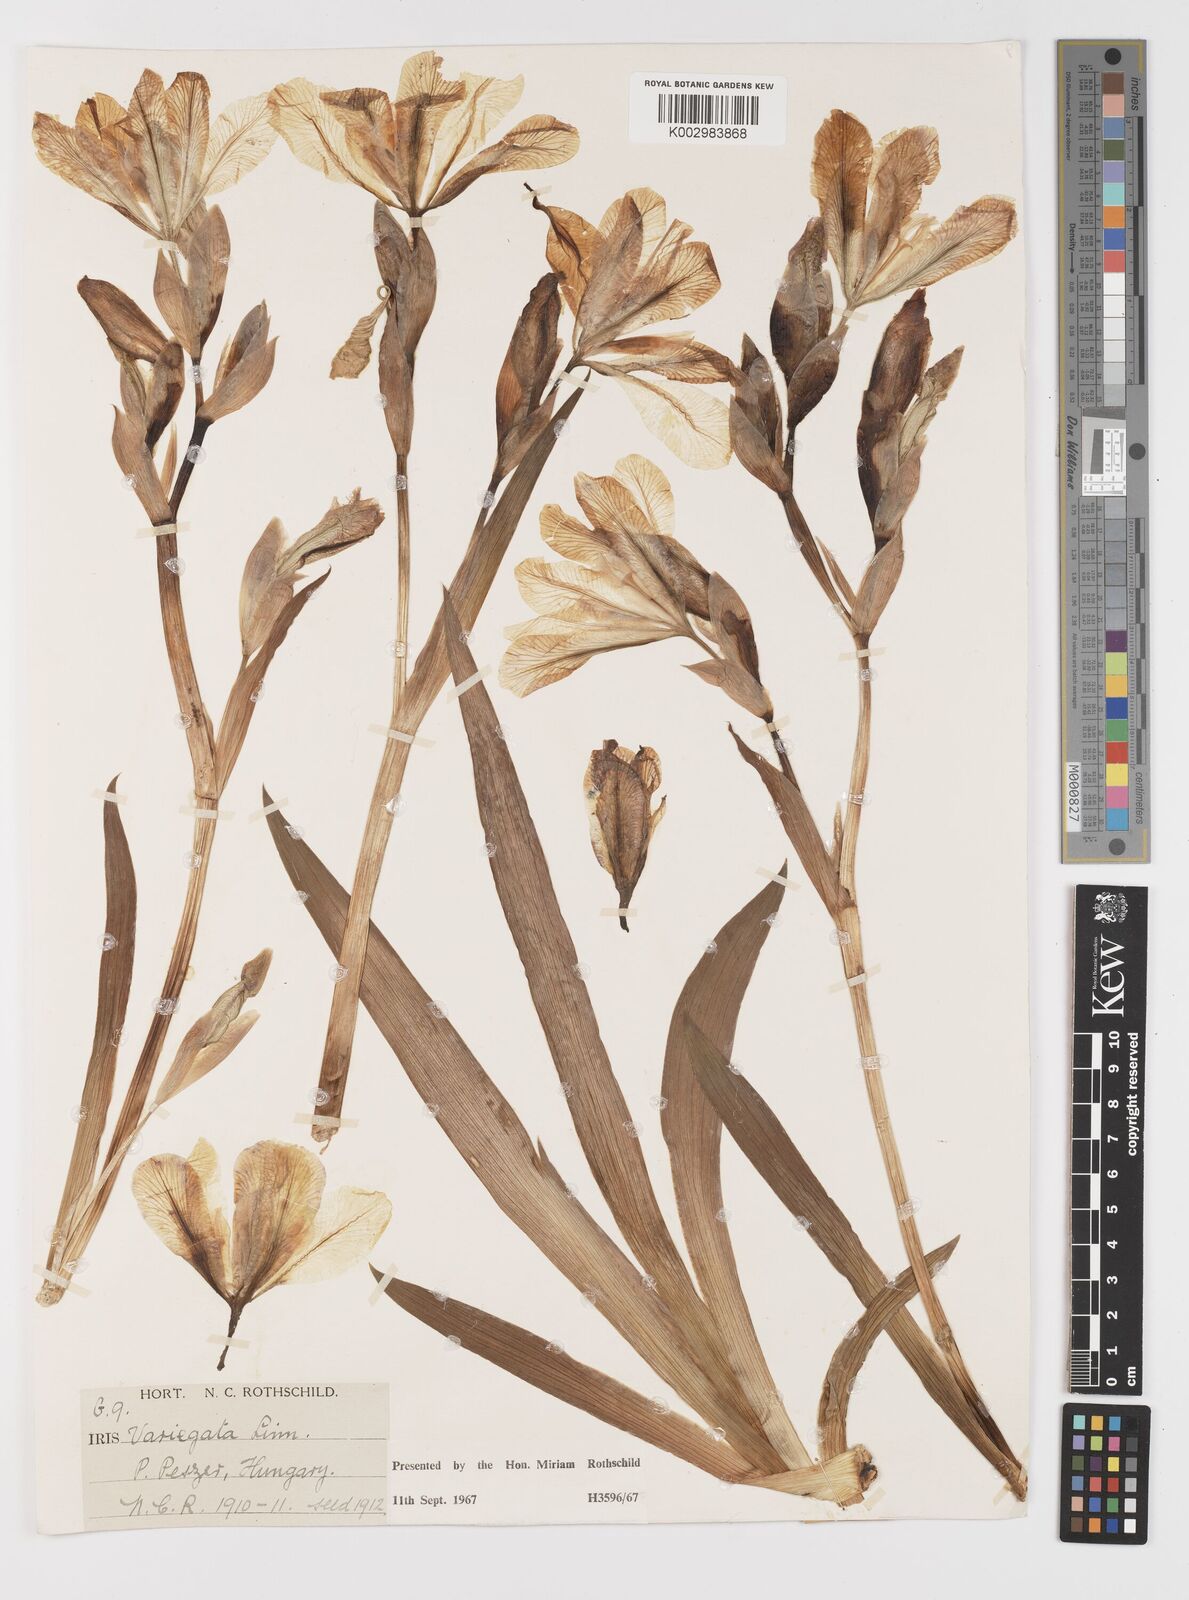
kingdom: Plantae
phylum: Tracheophyta
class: Liliopsida
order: Asparagales
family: Iridaceae
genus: Iris
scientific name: Iris variegata
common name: Hungarian iris
